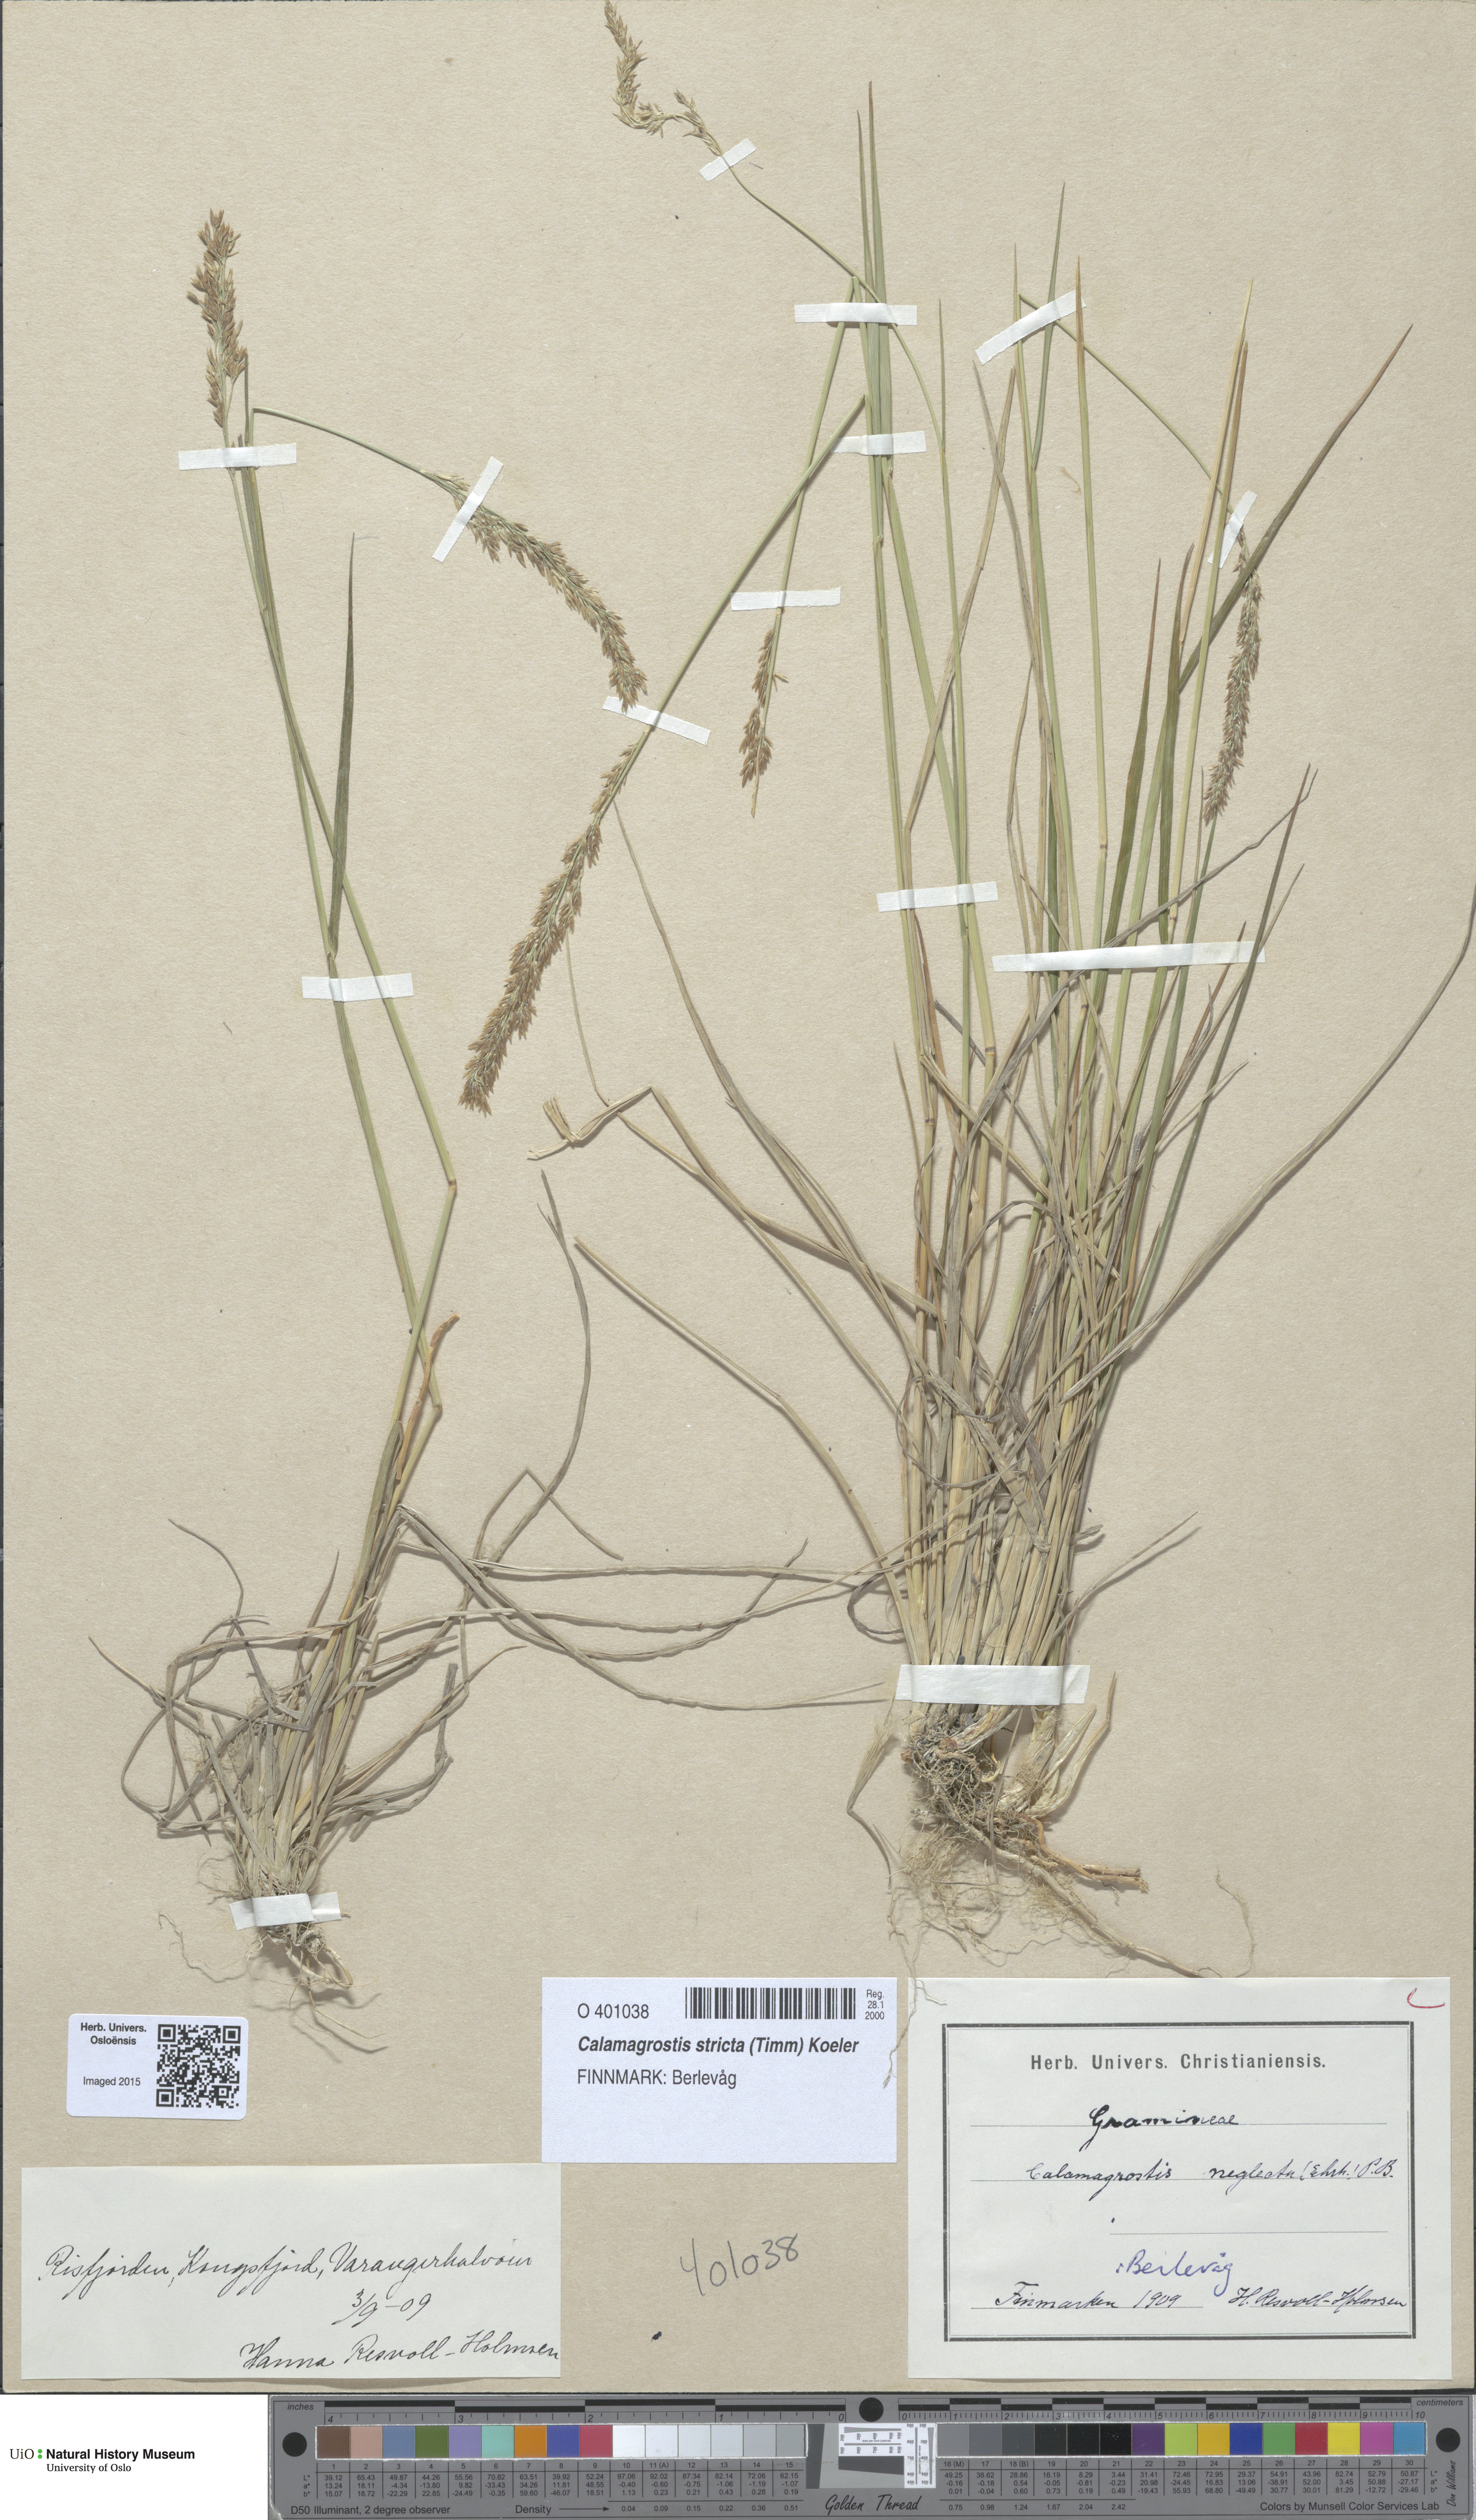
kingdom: Plantae
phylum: Tracheophyta
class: Liliopsida
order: Poales
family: Poaceae
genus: Achnatherum
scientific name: Achnatherum calamagrostis
